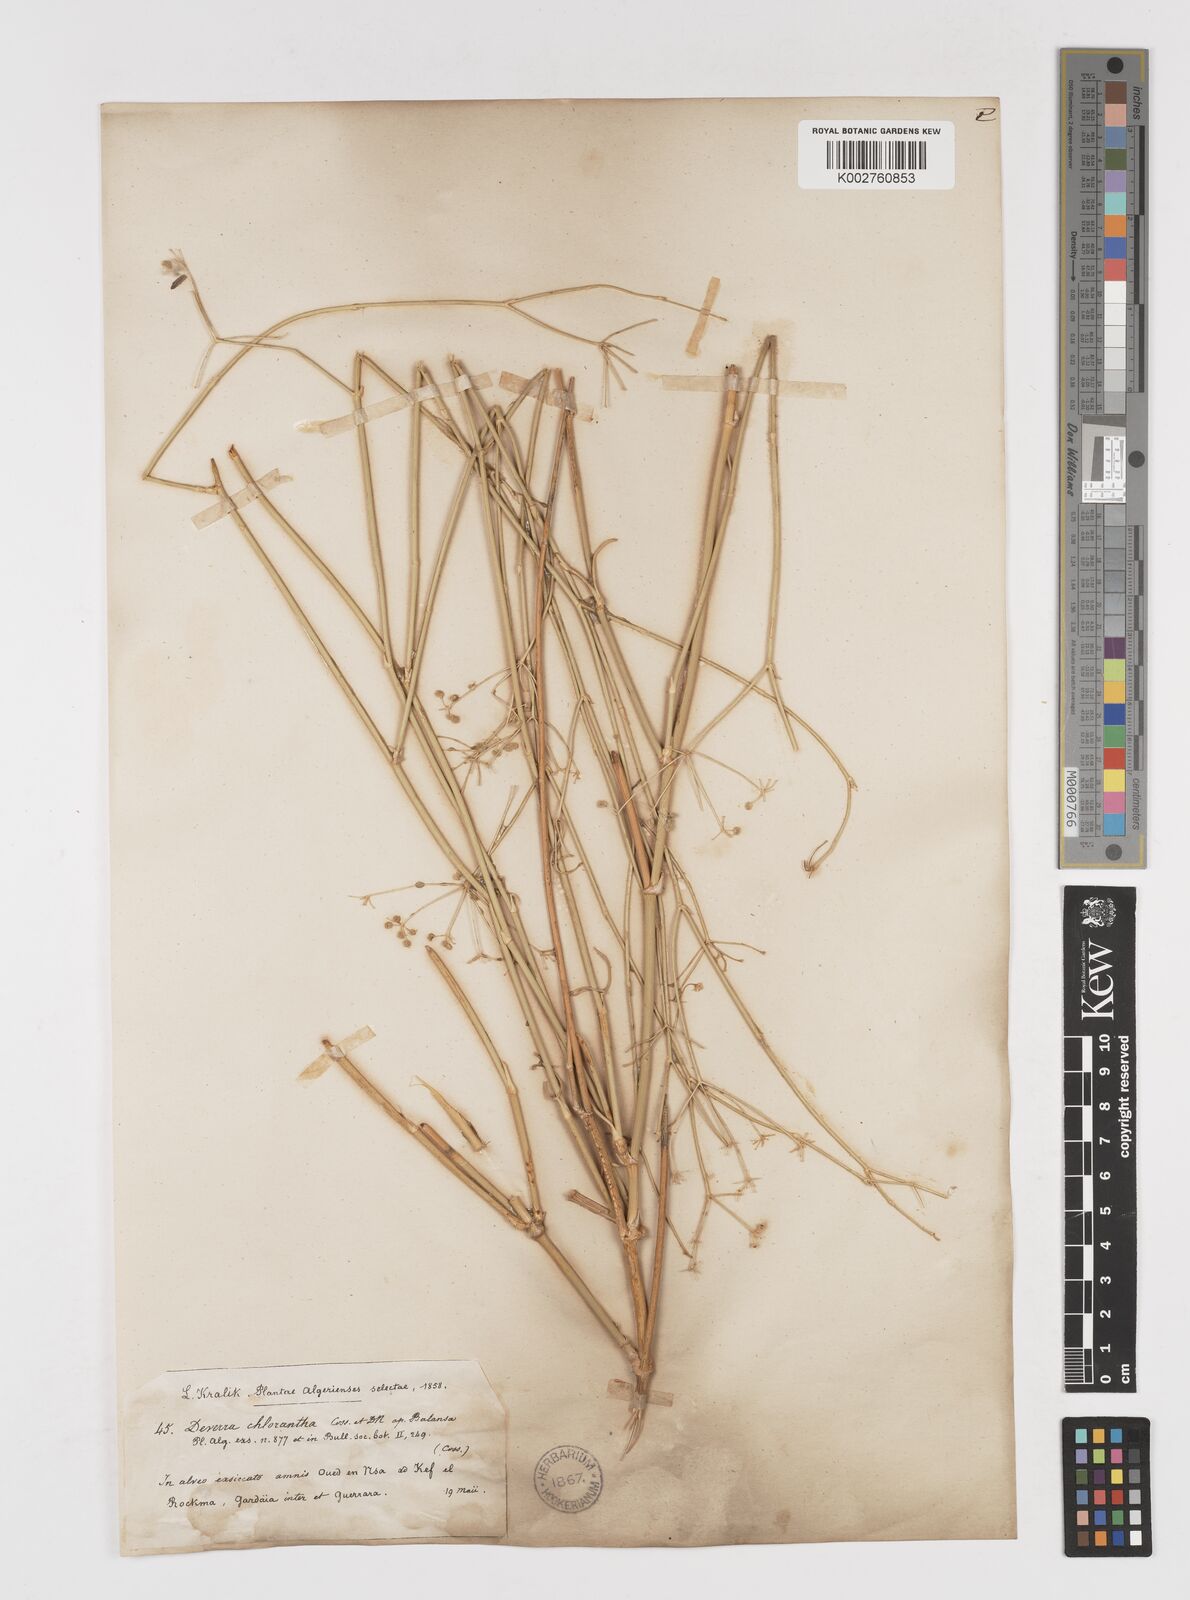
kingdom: Plantae
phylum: Tracheophyta
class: Magnoliopsida
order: Apiales
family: Apiaceae
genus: Deverra
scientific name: Deverra denudata
